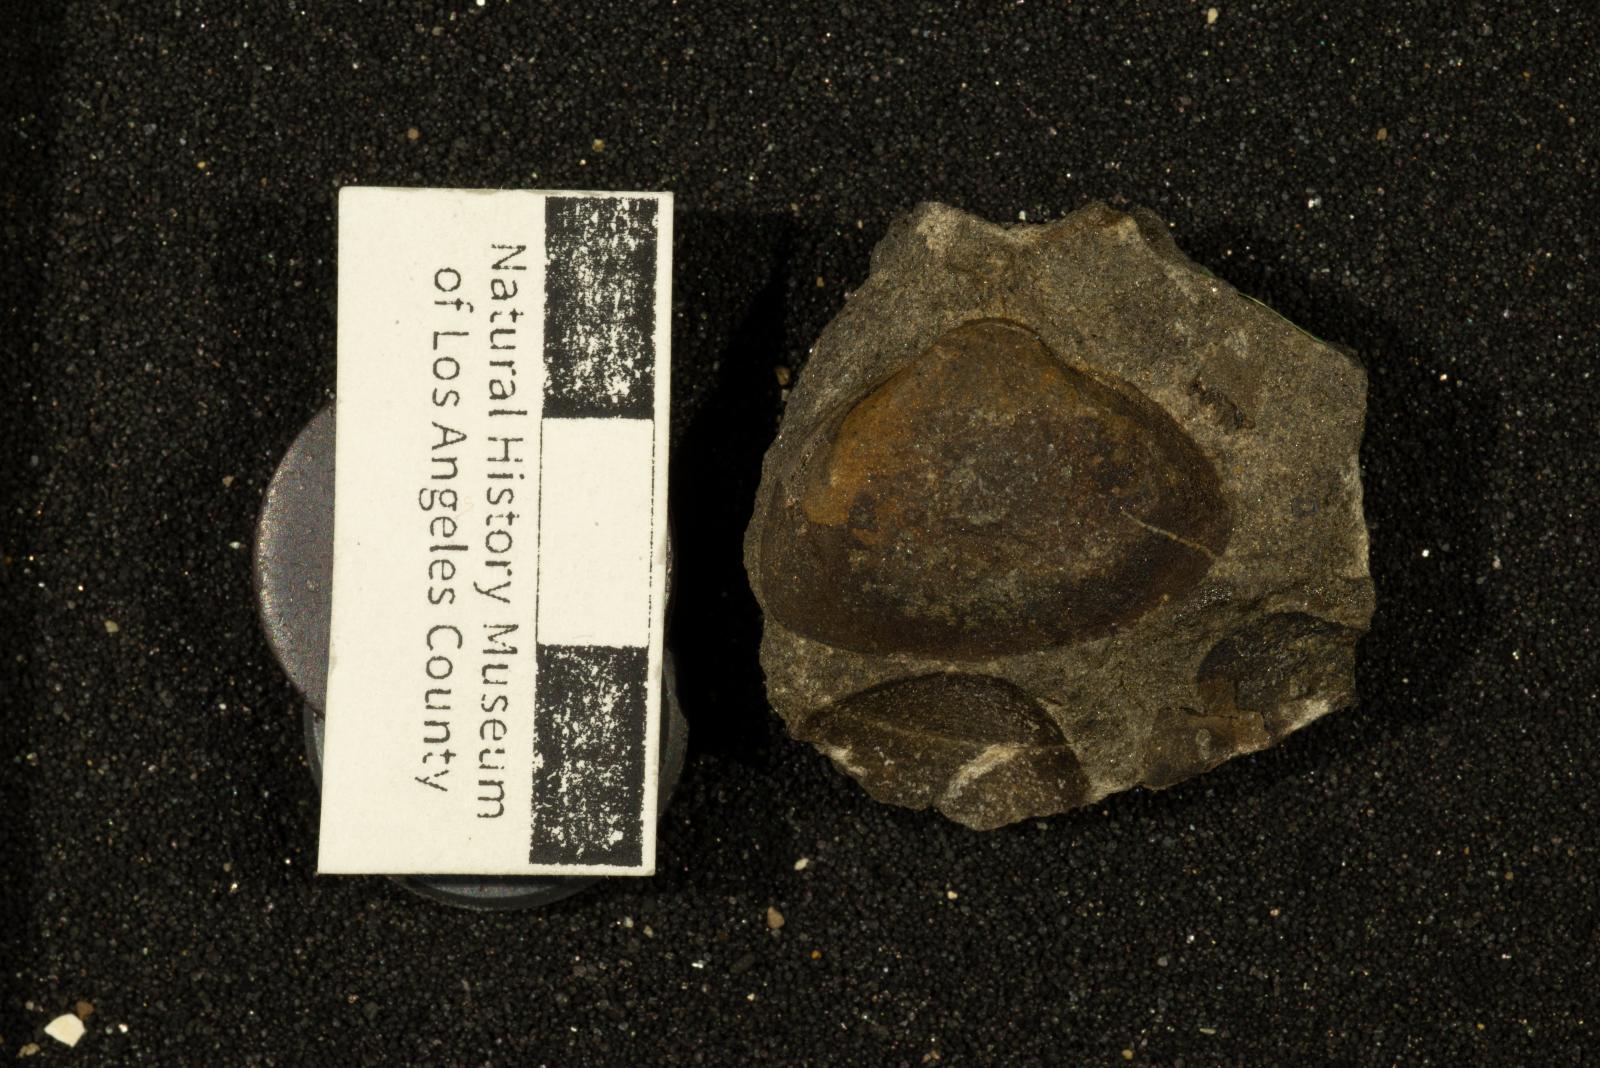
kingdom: Animalia
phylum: Mollusca
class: Bivalvia
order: Carditida
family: Crassatellidae
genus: Crassinella
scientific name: Crassinella
